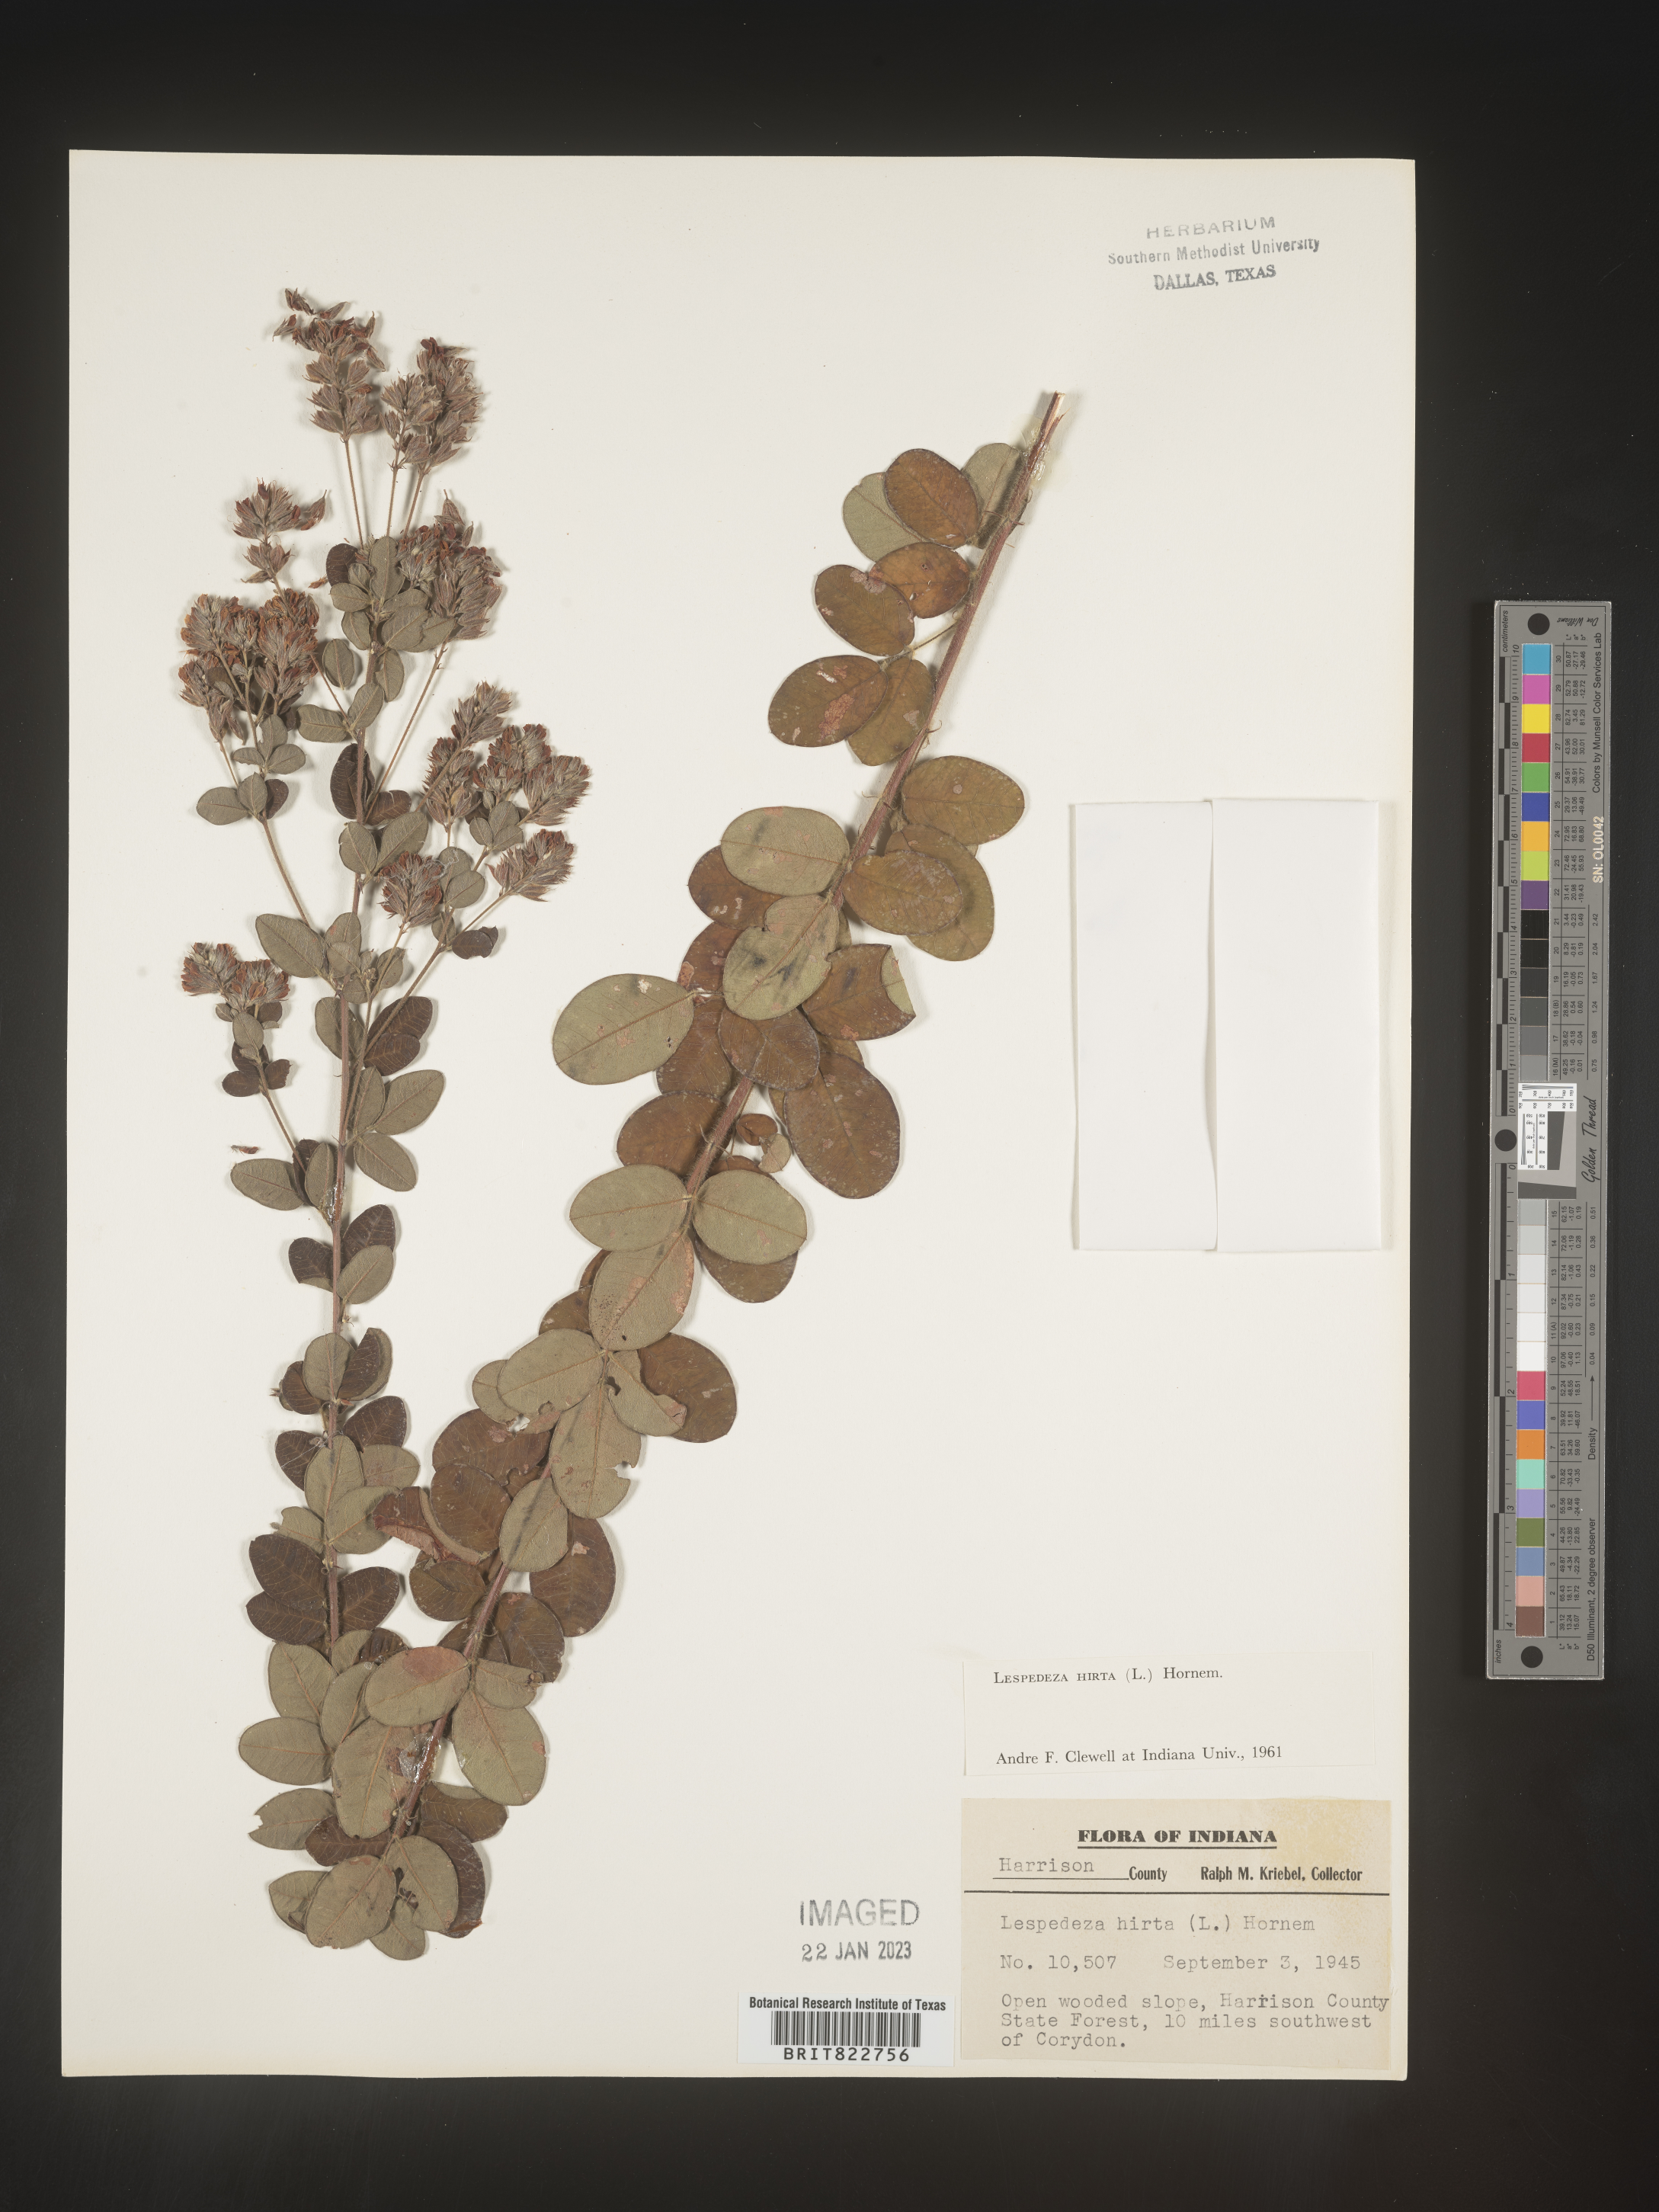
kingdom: Plantae
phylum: Tracheophyta
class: Magnoliopsida
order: Fabales
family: Fabaceae
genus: Lespedeza
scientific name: Lespedeza hirta
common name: Hairy lespedeza
